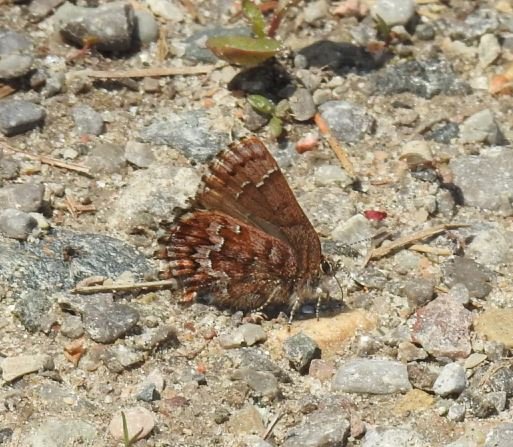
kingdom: Animalia
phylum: Arthropoda
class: Insecta
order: Lepidoptera
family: Lycaenidae
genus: Incisalia
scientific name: Incisalia niphon
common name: Eastern Pine Elfin
